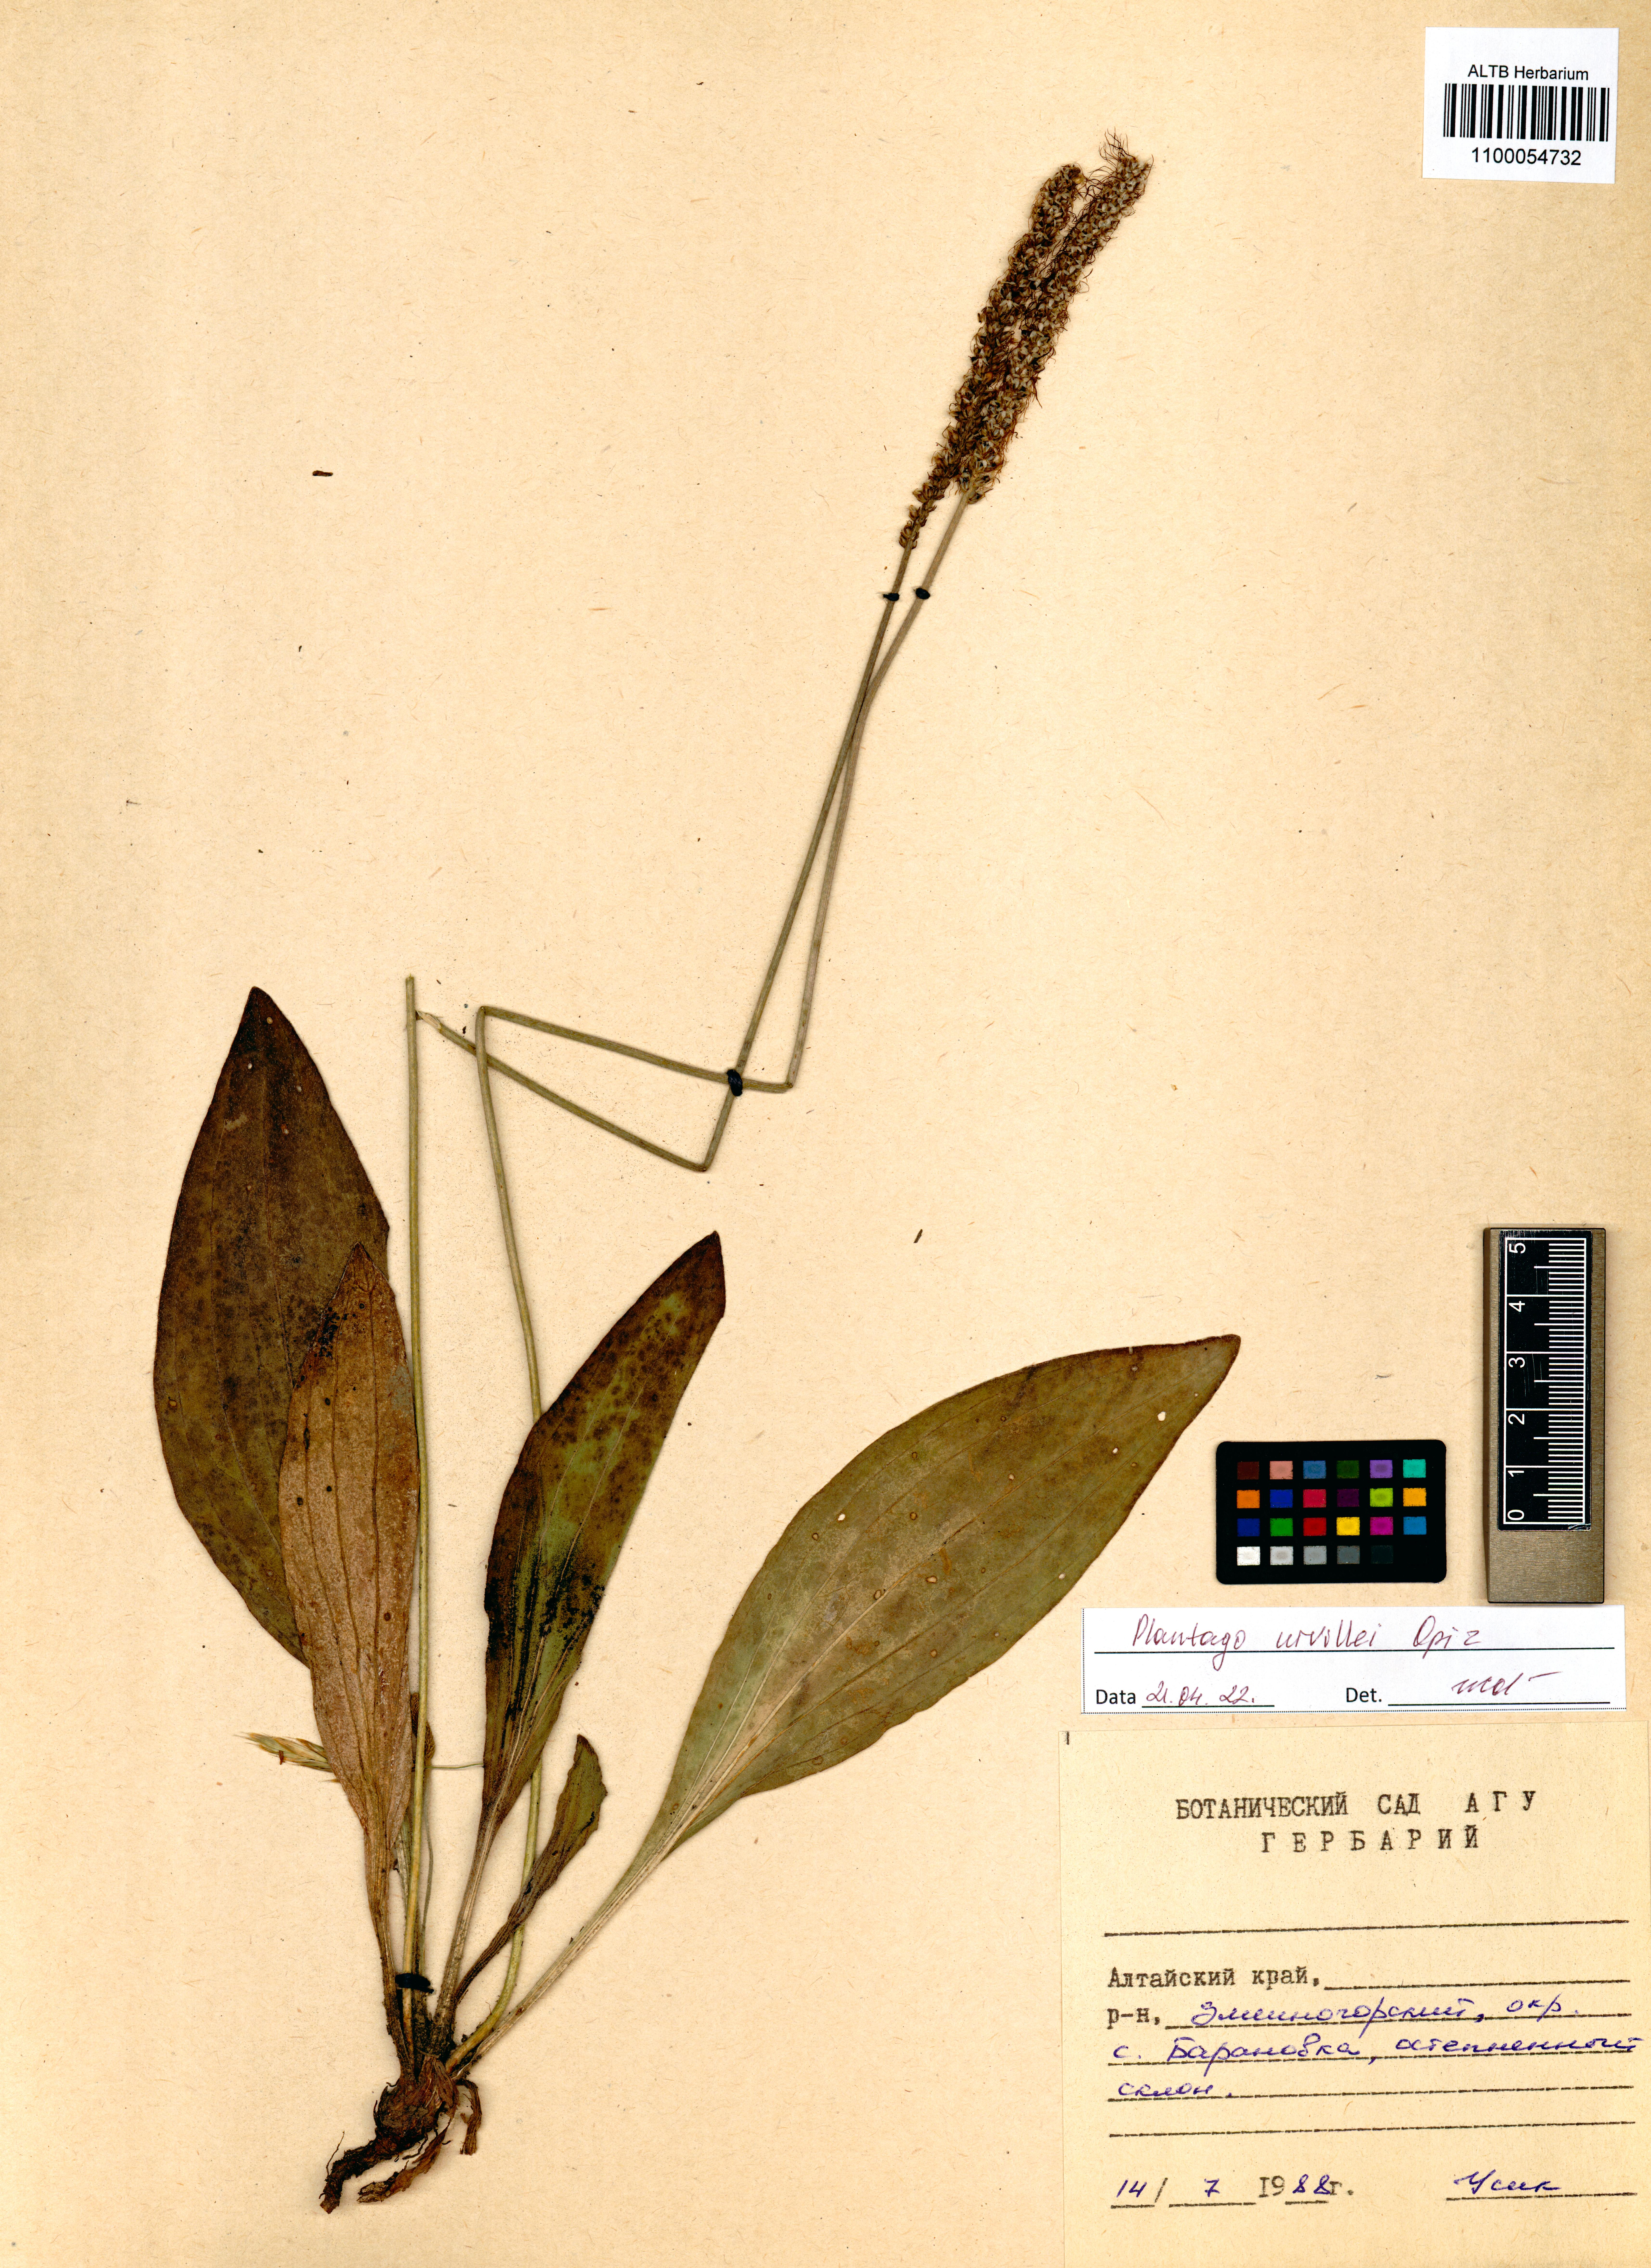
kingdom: Plantae
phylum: Tracheophyta
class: Magnoliopsida
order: Lamiales
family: Plantaginaceae
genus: Plantago
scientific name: Plantago urvillei
